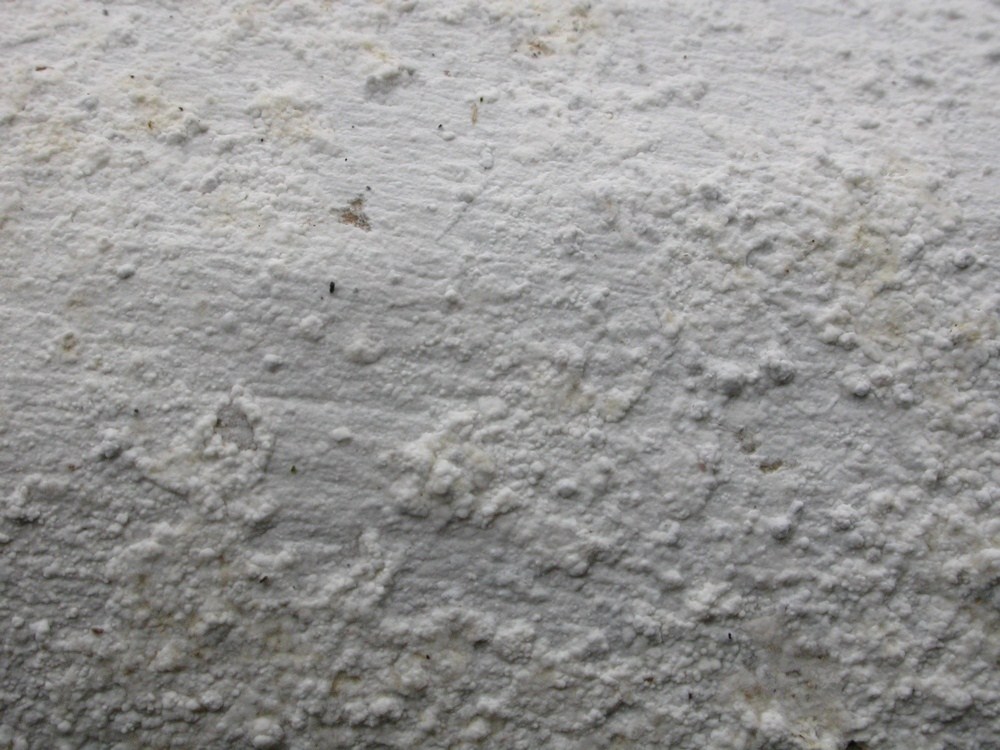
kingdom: Fungi
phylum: Basidiomycota
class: Agaricomycetes
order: Corticiales
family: Corticiaceae
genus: Lyomyces
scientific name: Lyomyces sambuci
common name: almindelig hyldehinde
